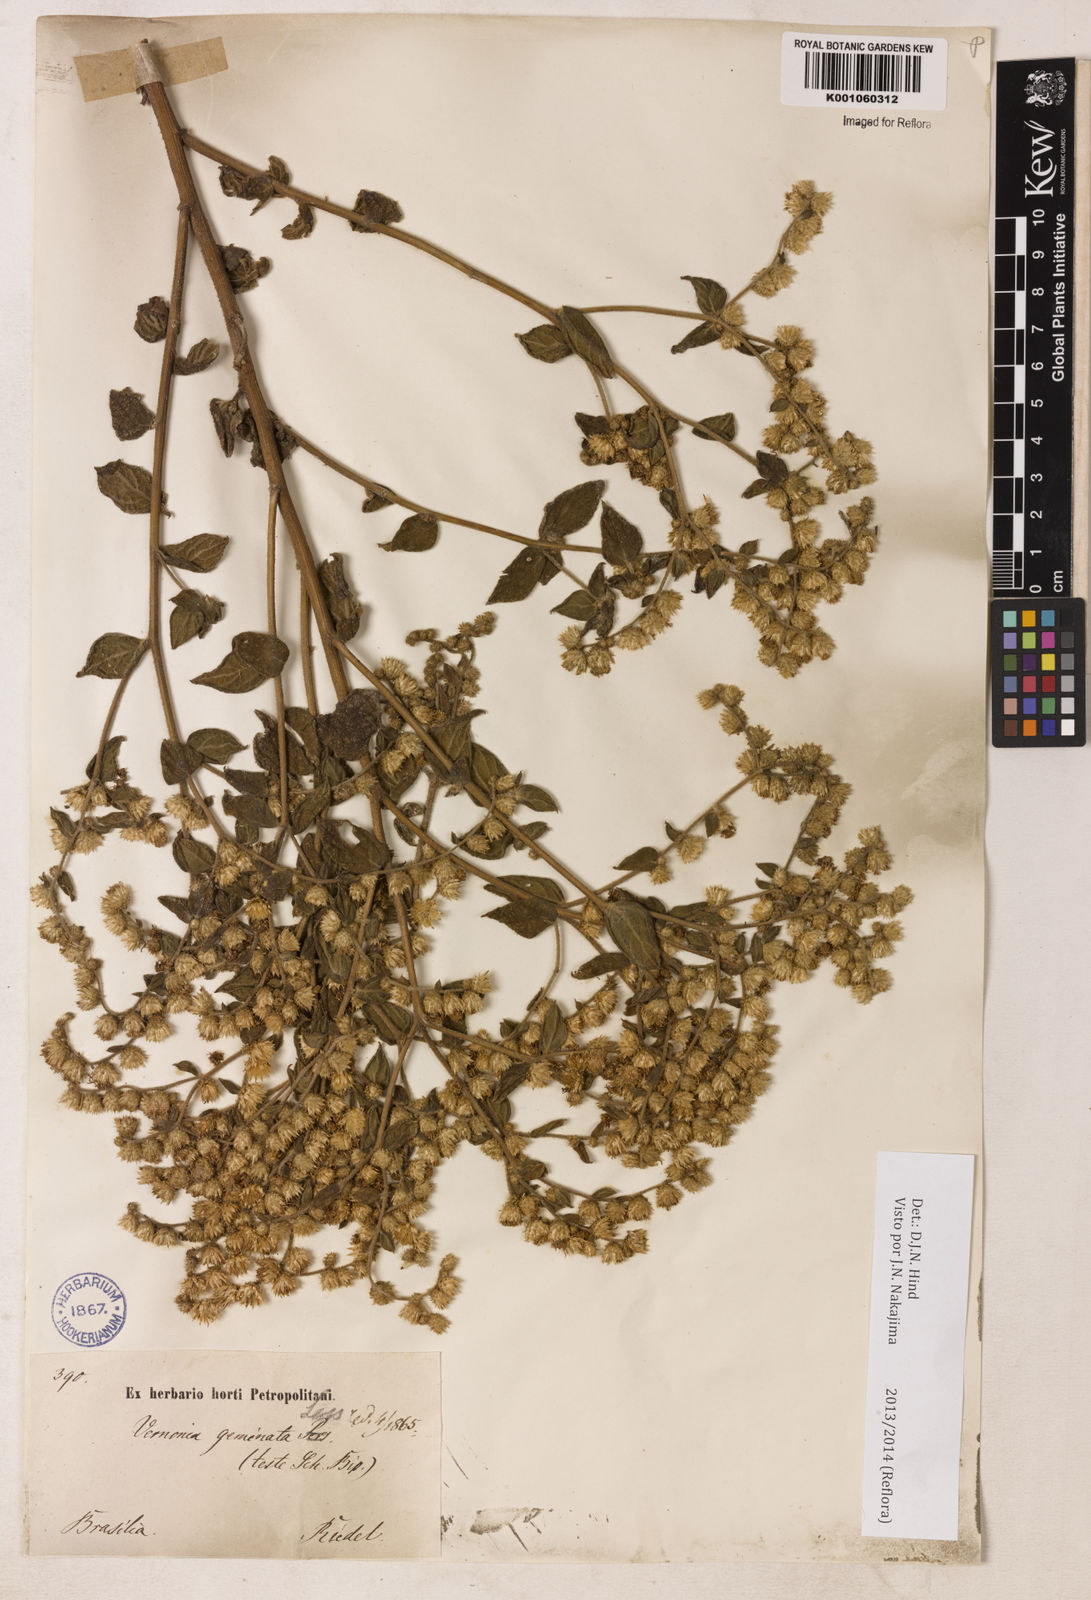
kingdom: Plantae
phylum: Tracheophyta
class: Magnoliopsida
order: Asterales
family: Asteraceae
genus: Lepidaploa
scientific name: Lepidaploa canescens
